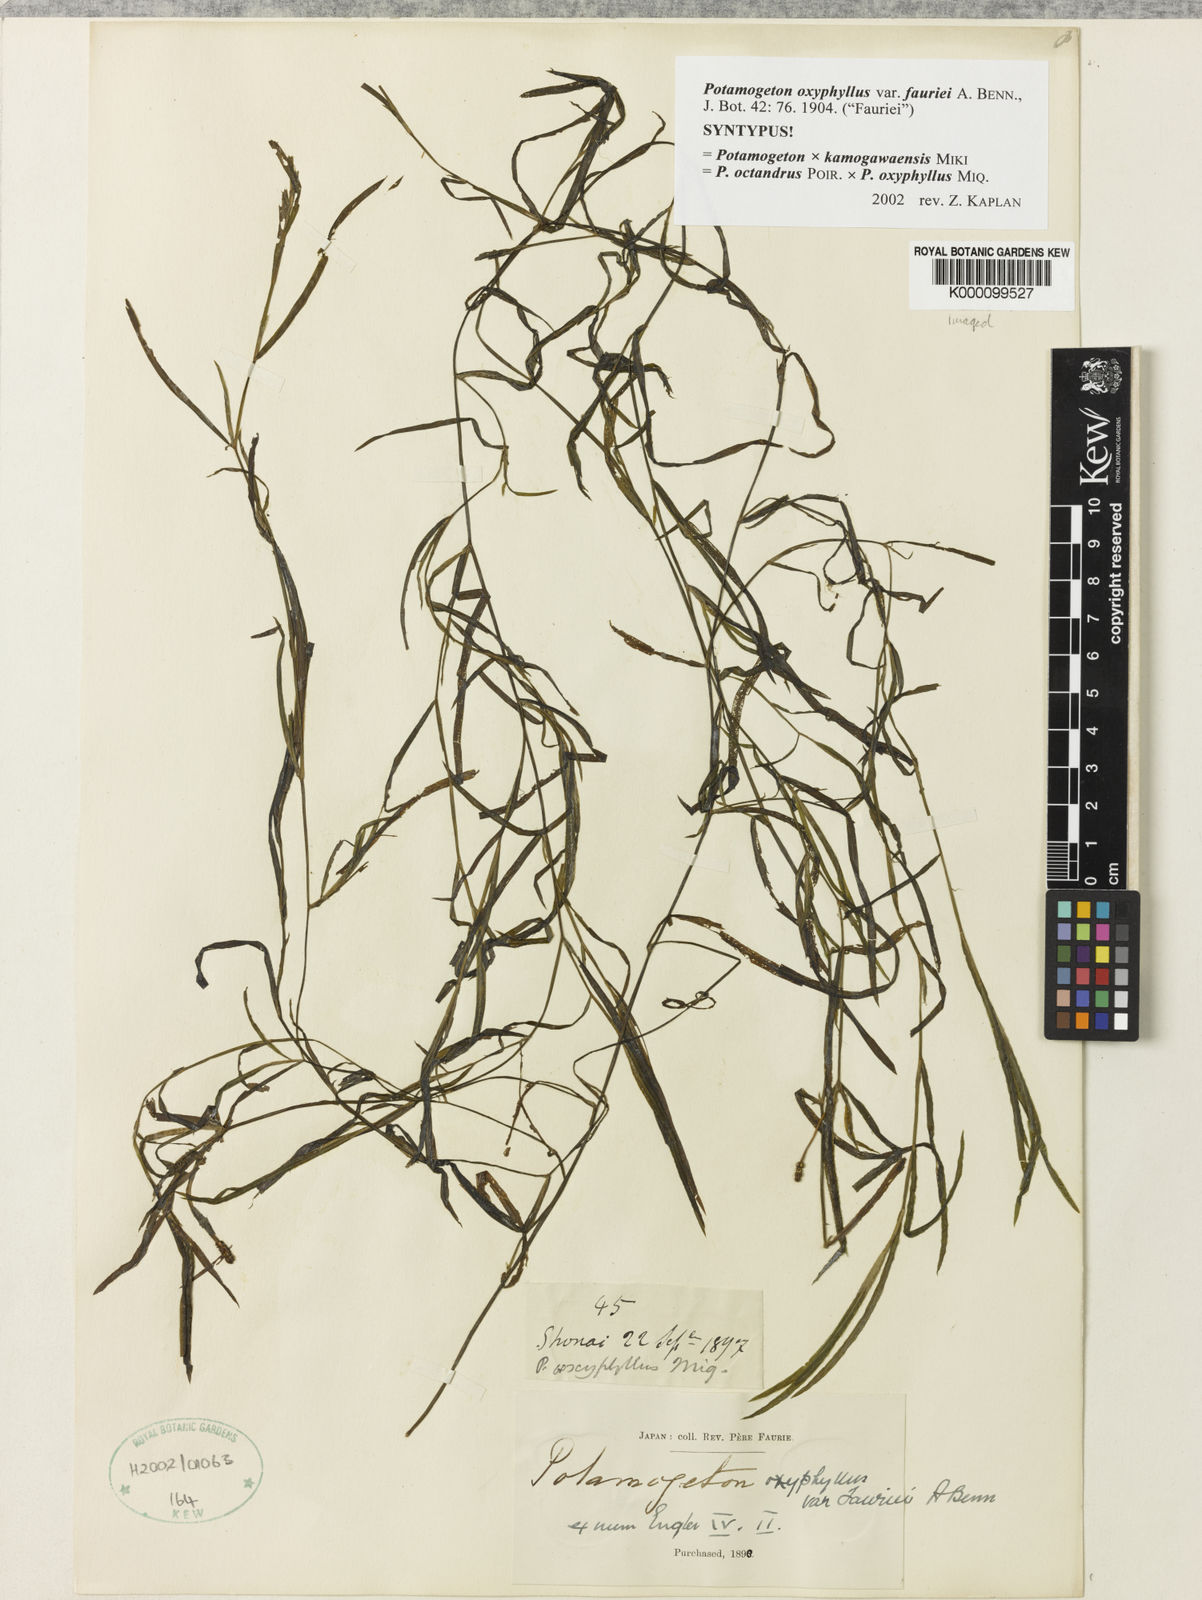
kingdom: Plantae
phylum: Tracheophyta
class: Liliopsida
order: Alismatales
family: Potamogetonaceae
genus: Potamogeton
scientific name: Potamogeton kamogawaensis
